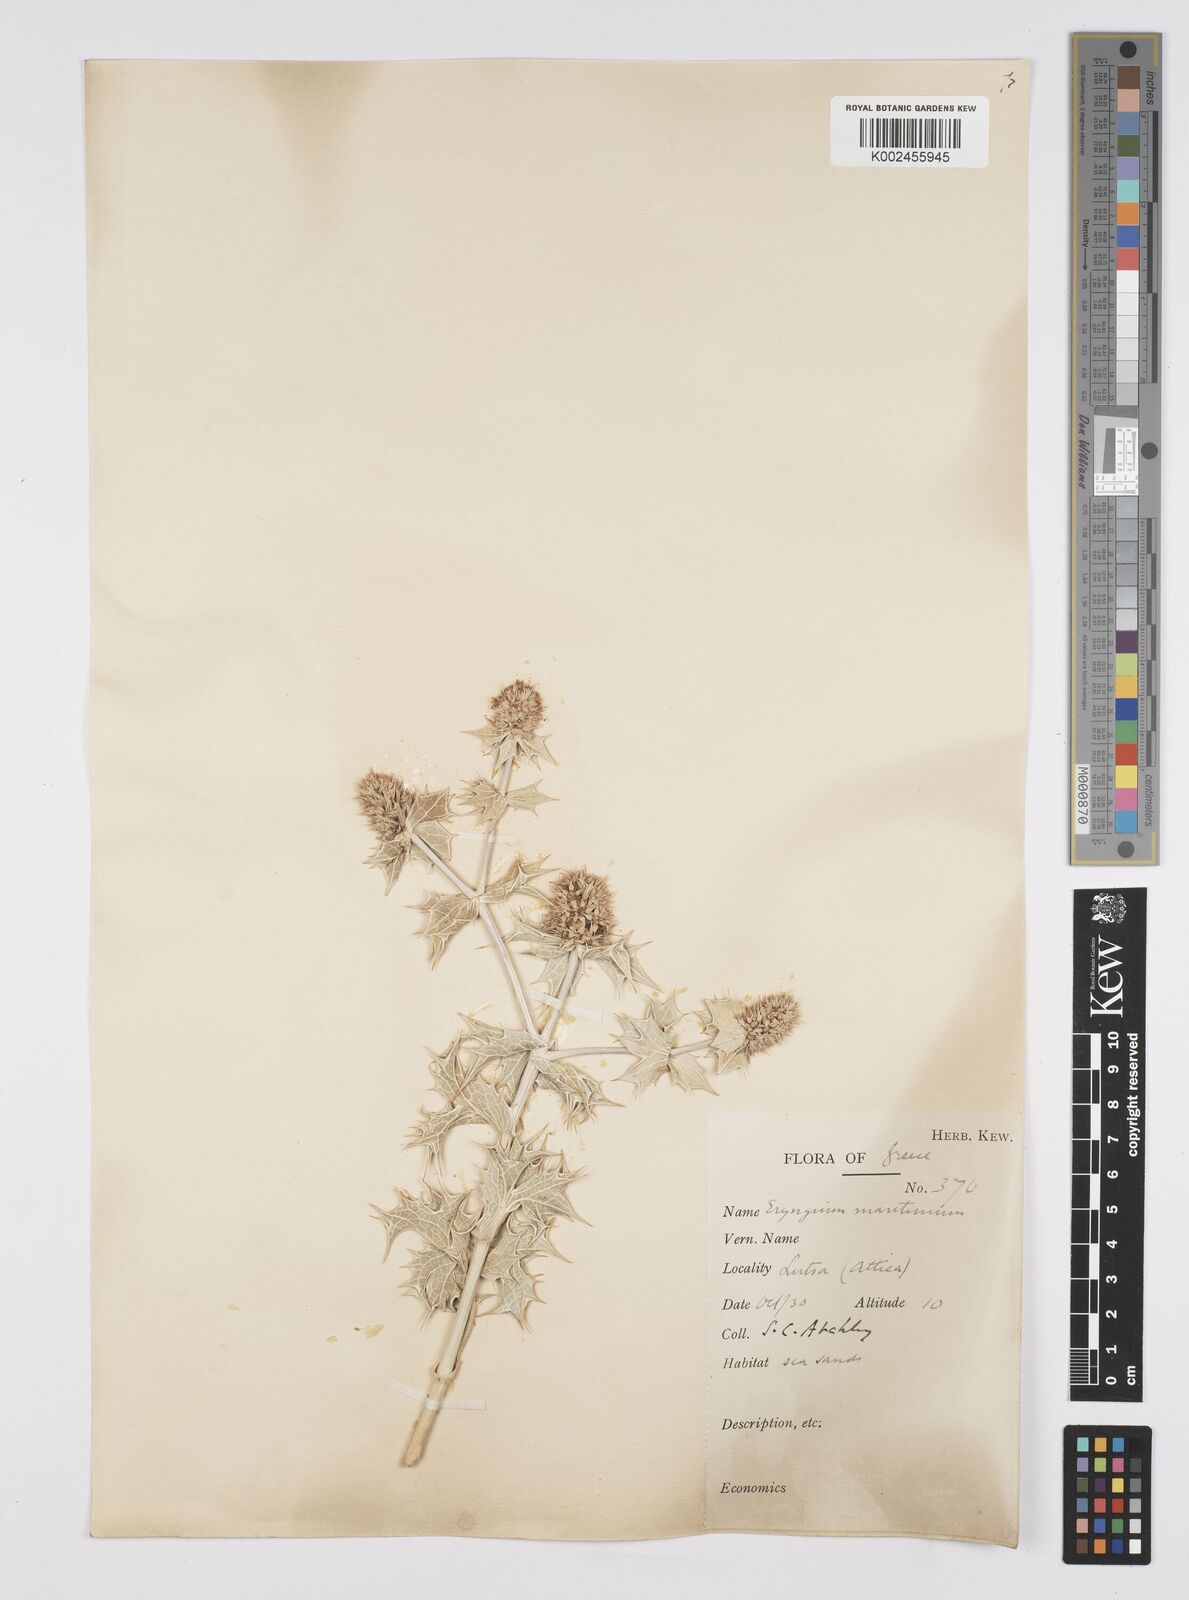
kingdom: Plantae
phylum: Tracheophyta
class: Magnoliopsida
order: Apiales
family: Apiaceae
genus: Eryngium
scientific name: Eryngium maritimum
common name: Sea-holly
